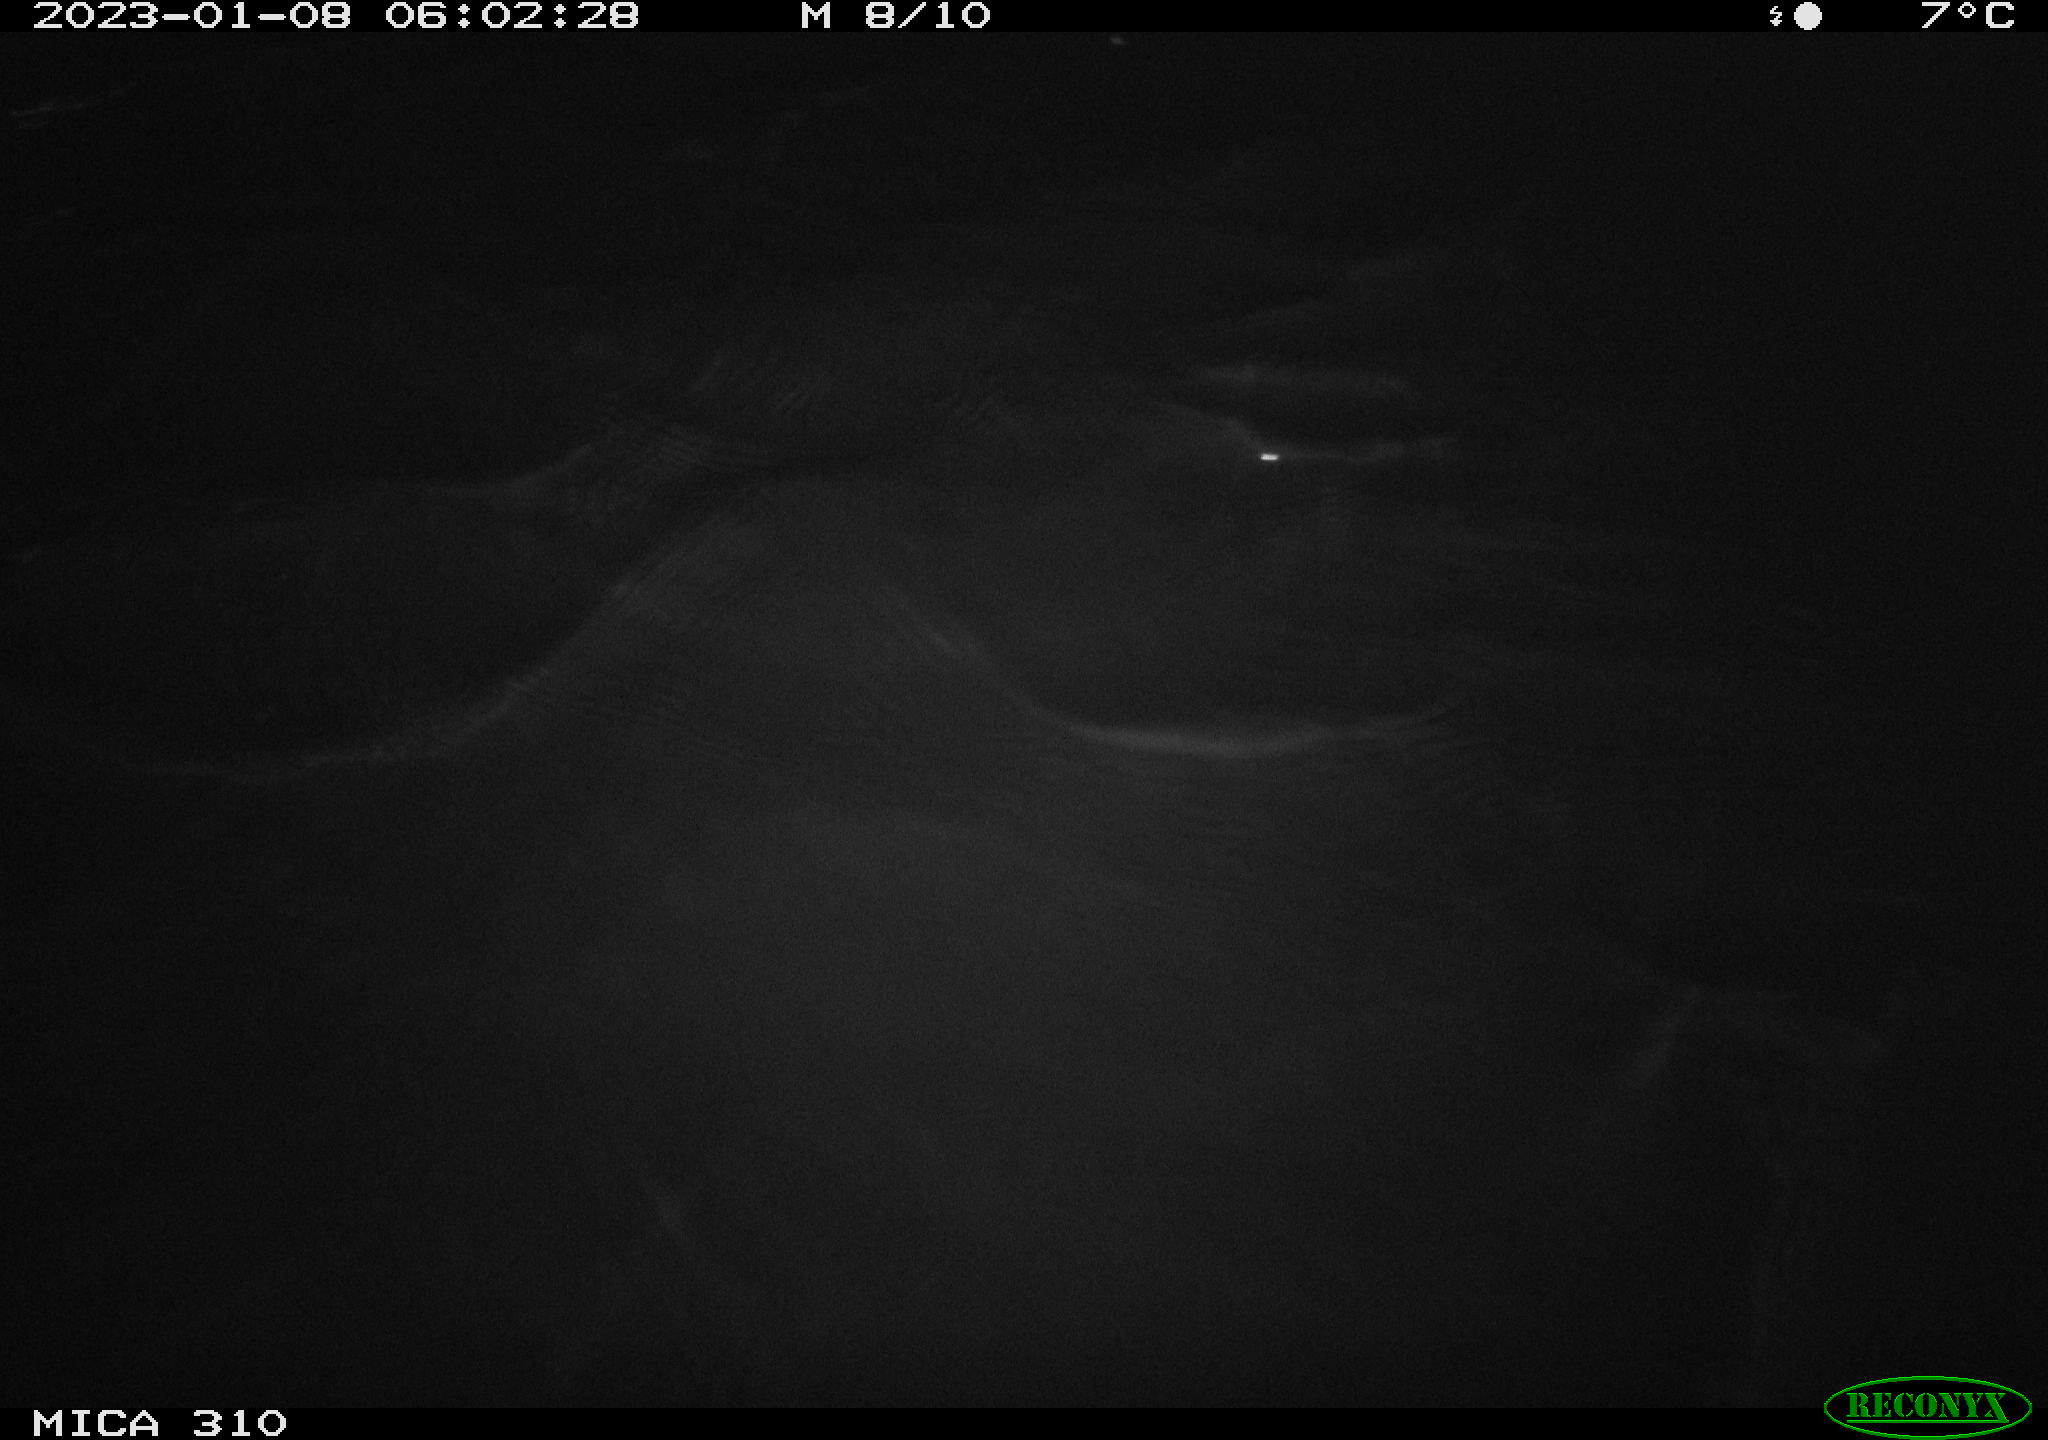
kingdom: Animalia
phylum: Chordata
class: Aves
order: Anseriformes
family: Anatidae
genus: Anas
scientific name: Anas
